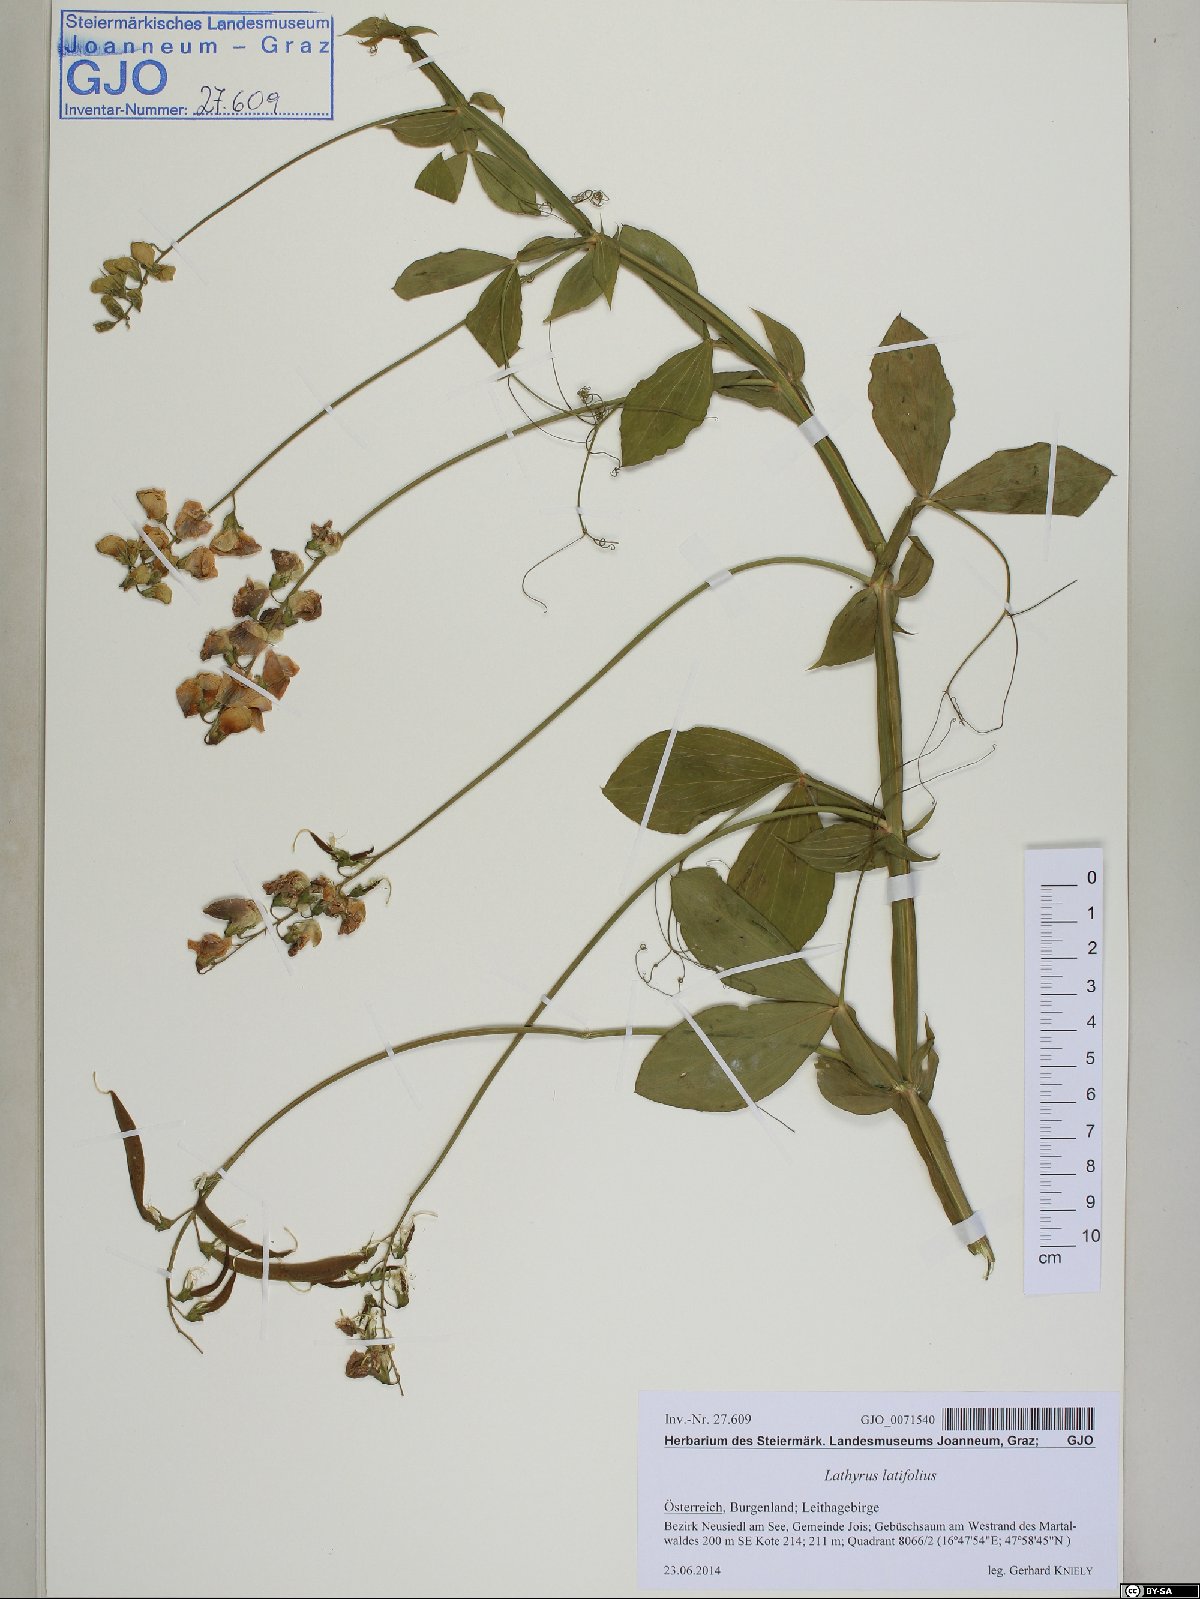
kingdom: Plantae
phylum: Tracheophyta
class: Magnoliopsida
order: Fabales
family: Fabaceae
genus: Lathyrus
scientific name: Lathyrus latifolius
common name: Perennial pea
